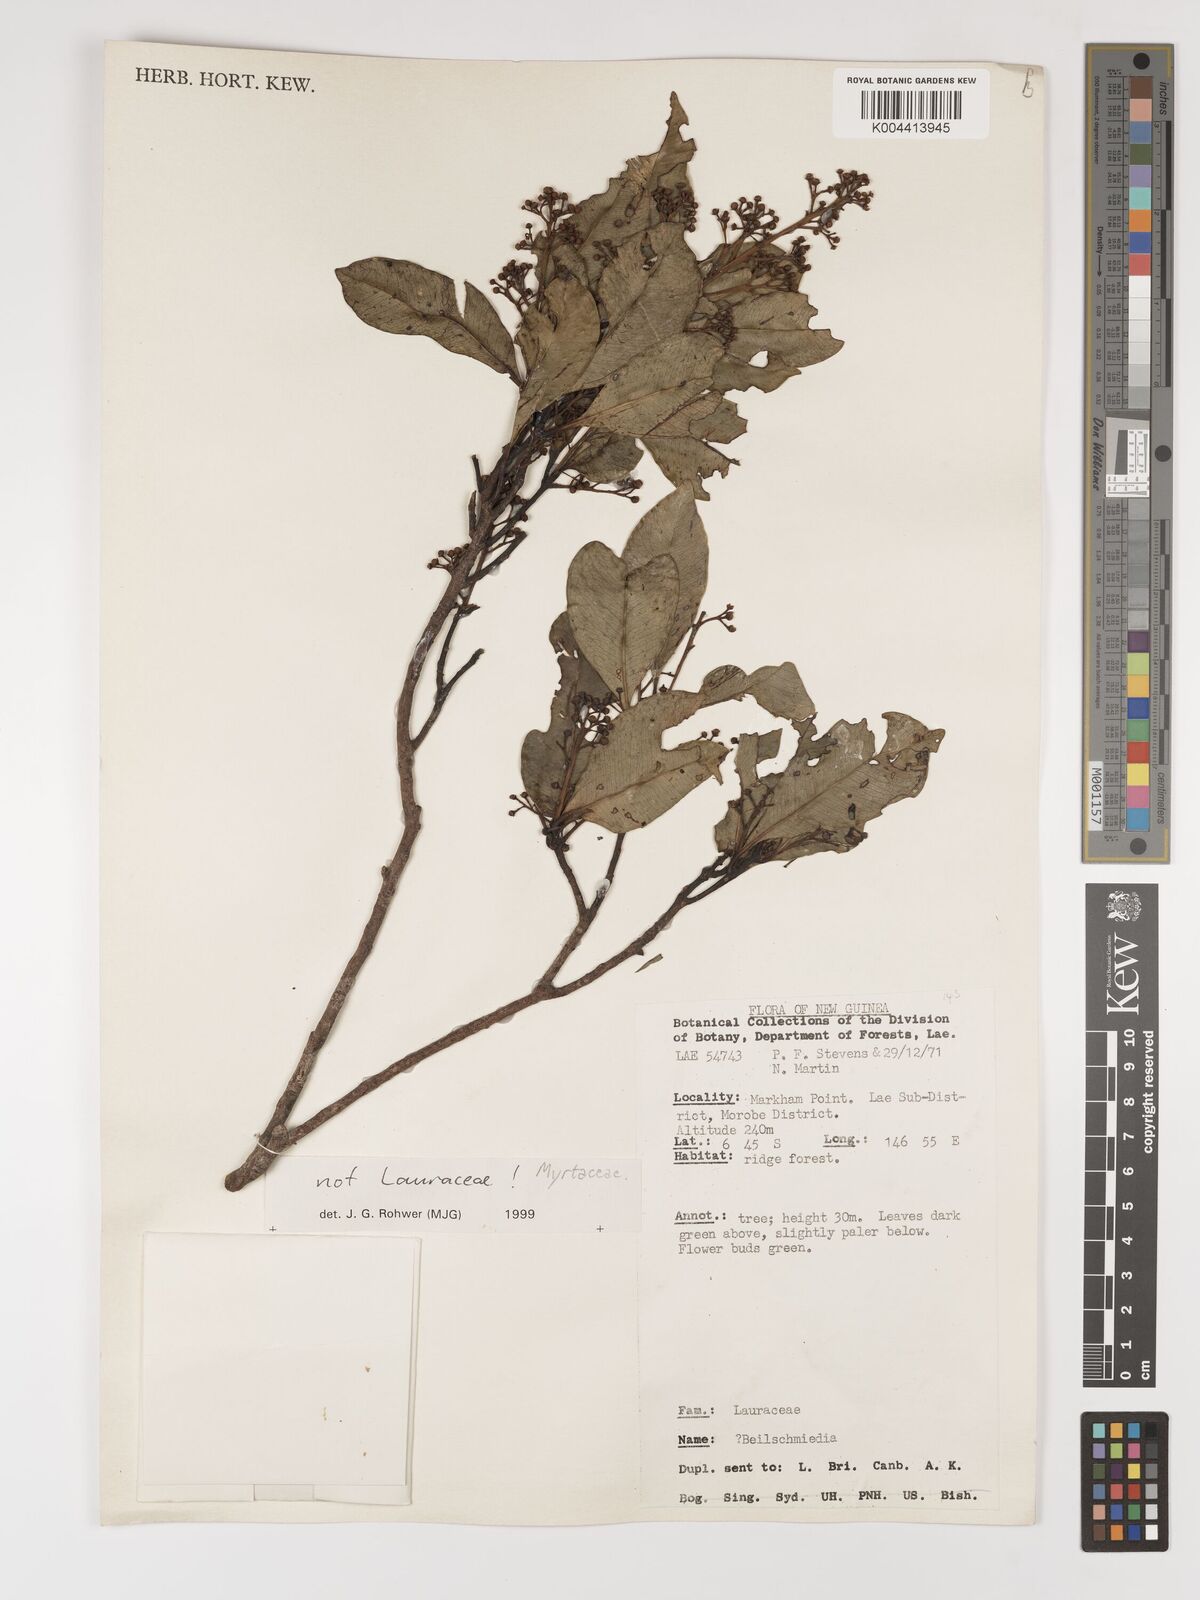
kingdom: Plantae
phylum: Tracheophyta
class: Magnoliopsida
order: Myrtales
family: Myrtaceae
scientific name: Myrtaceae
